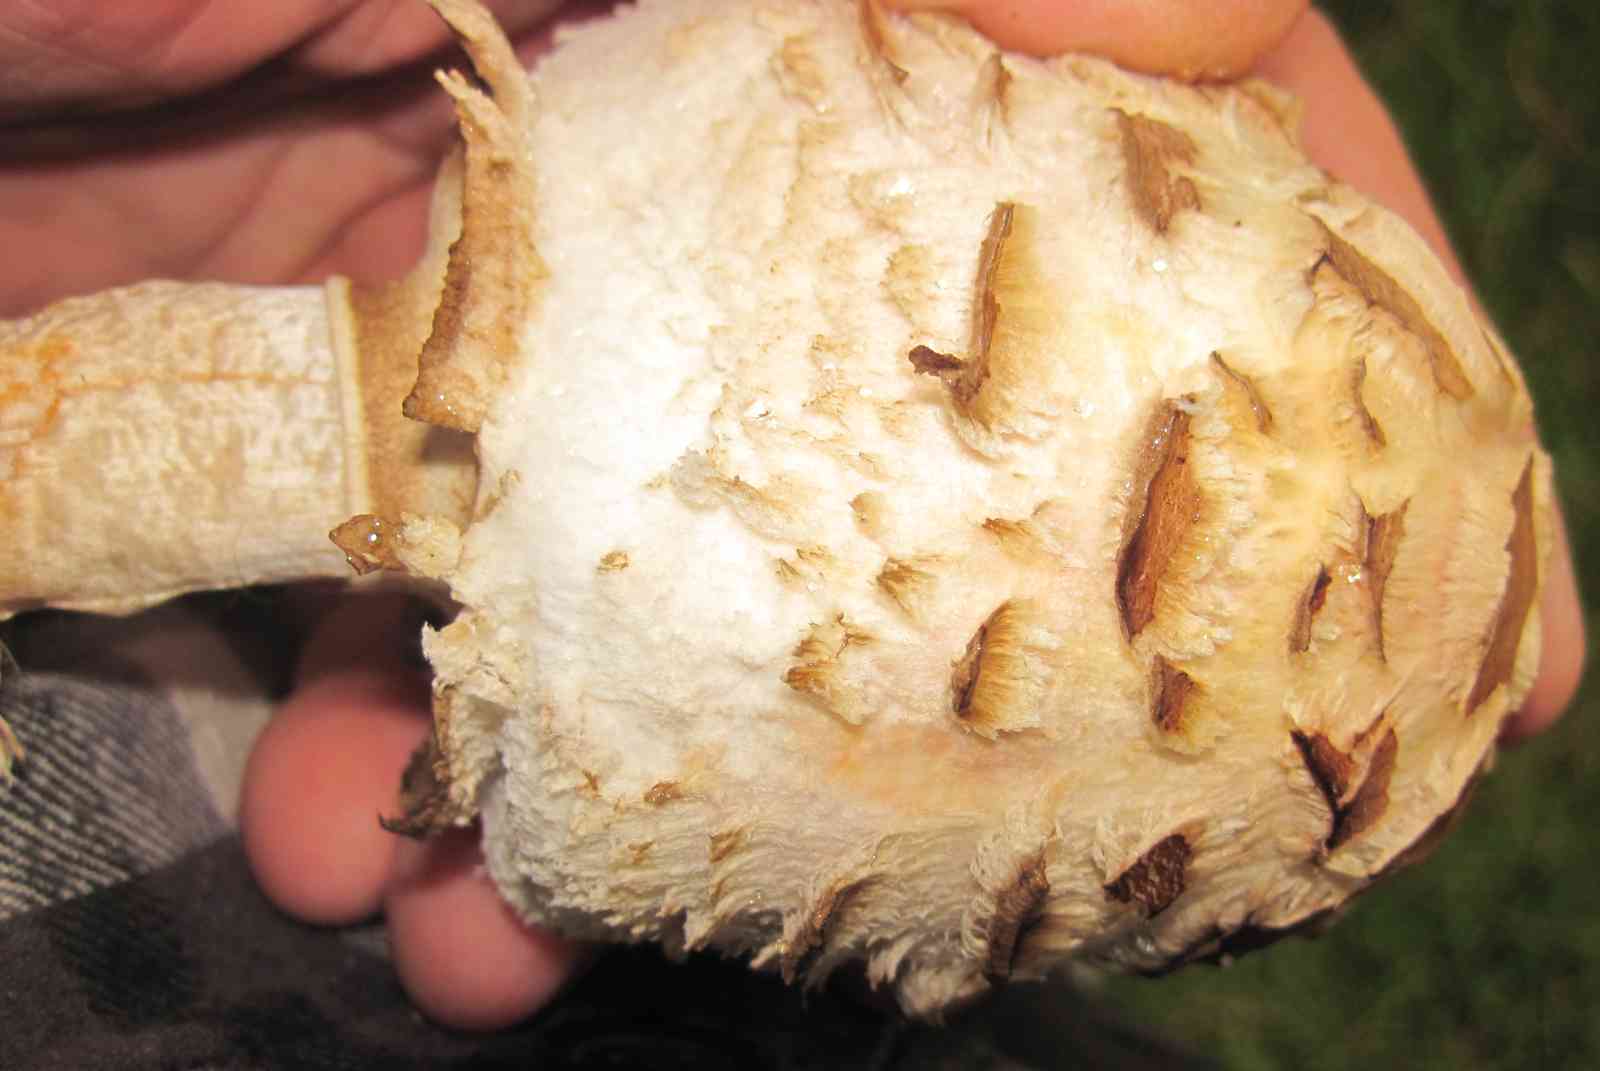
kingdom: Fungi
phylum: Basidiomycota
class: Agaricomycetes
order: Agaricales
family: Agaricaceae
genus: Chlorophyllum
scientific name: Chlorophyllum
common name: rabarberhat
